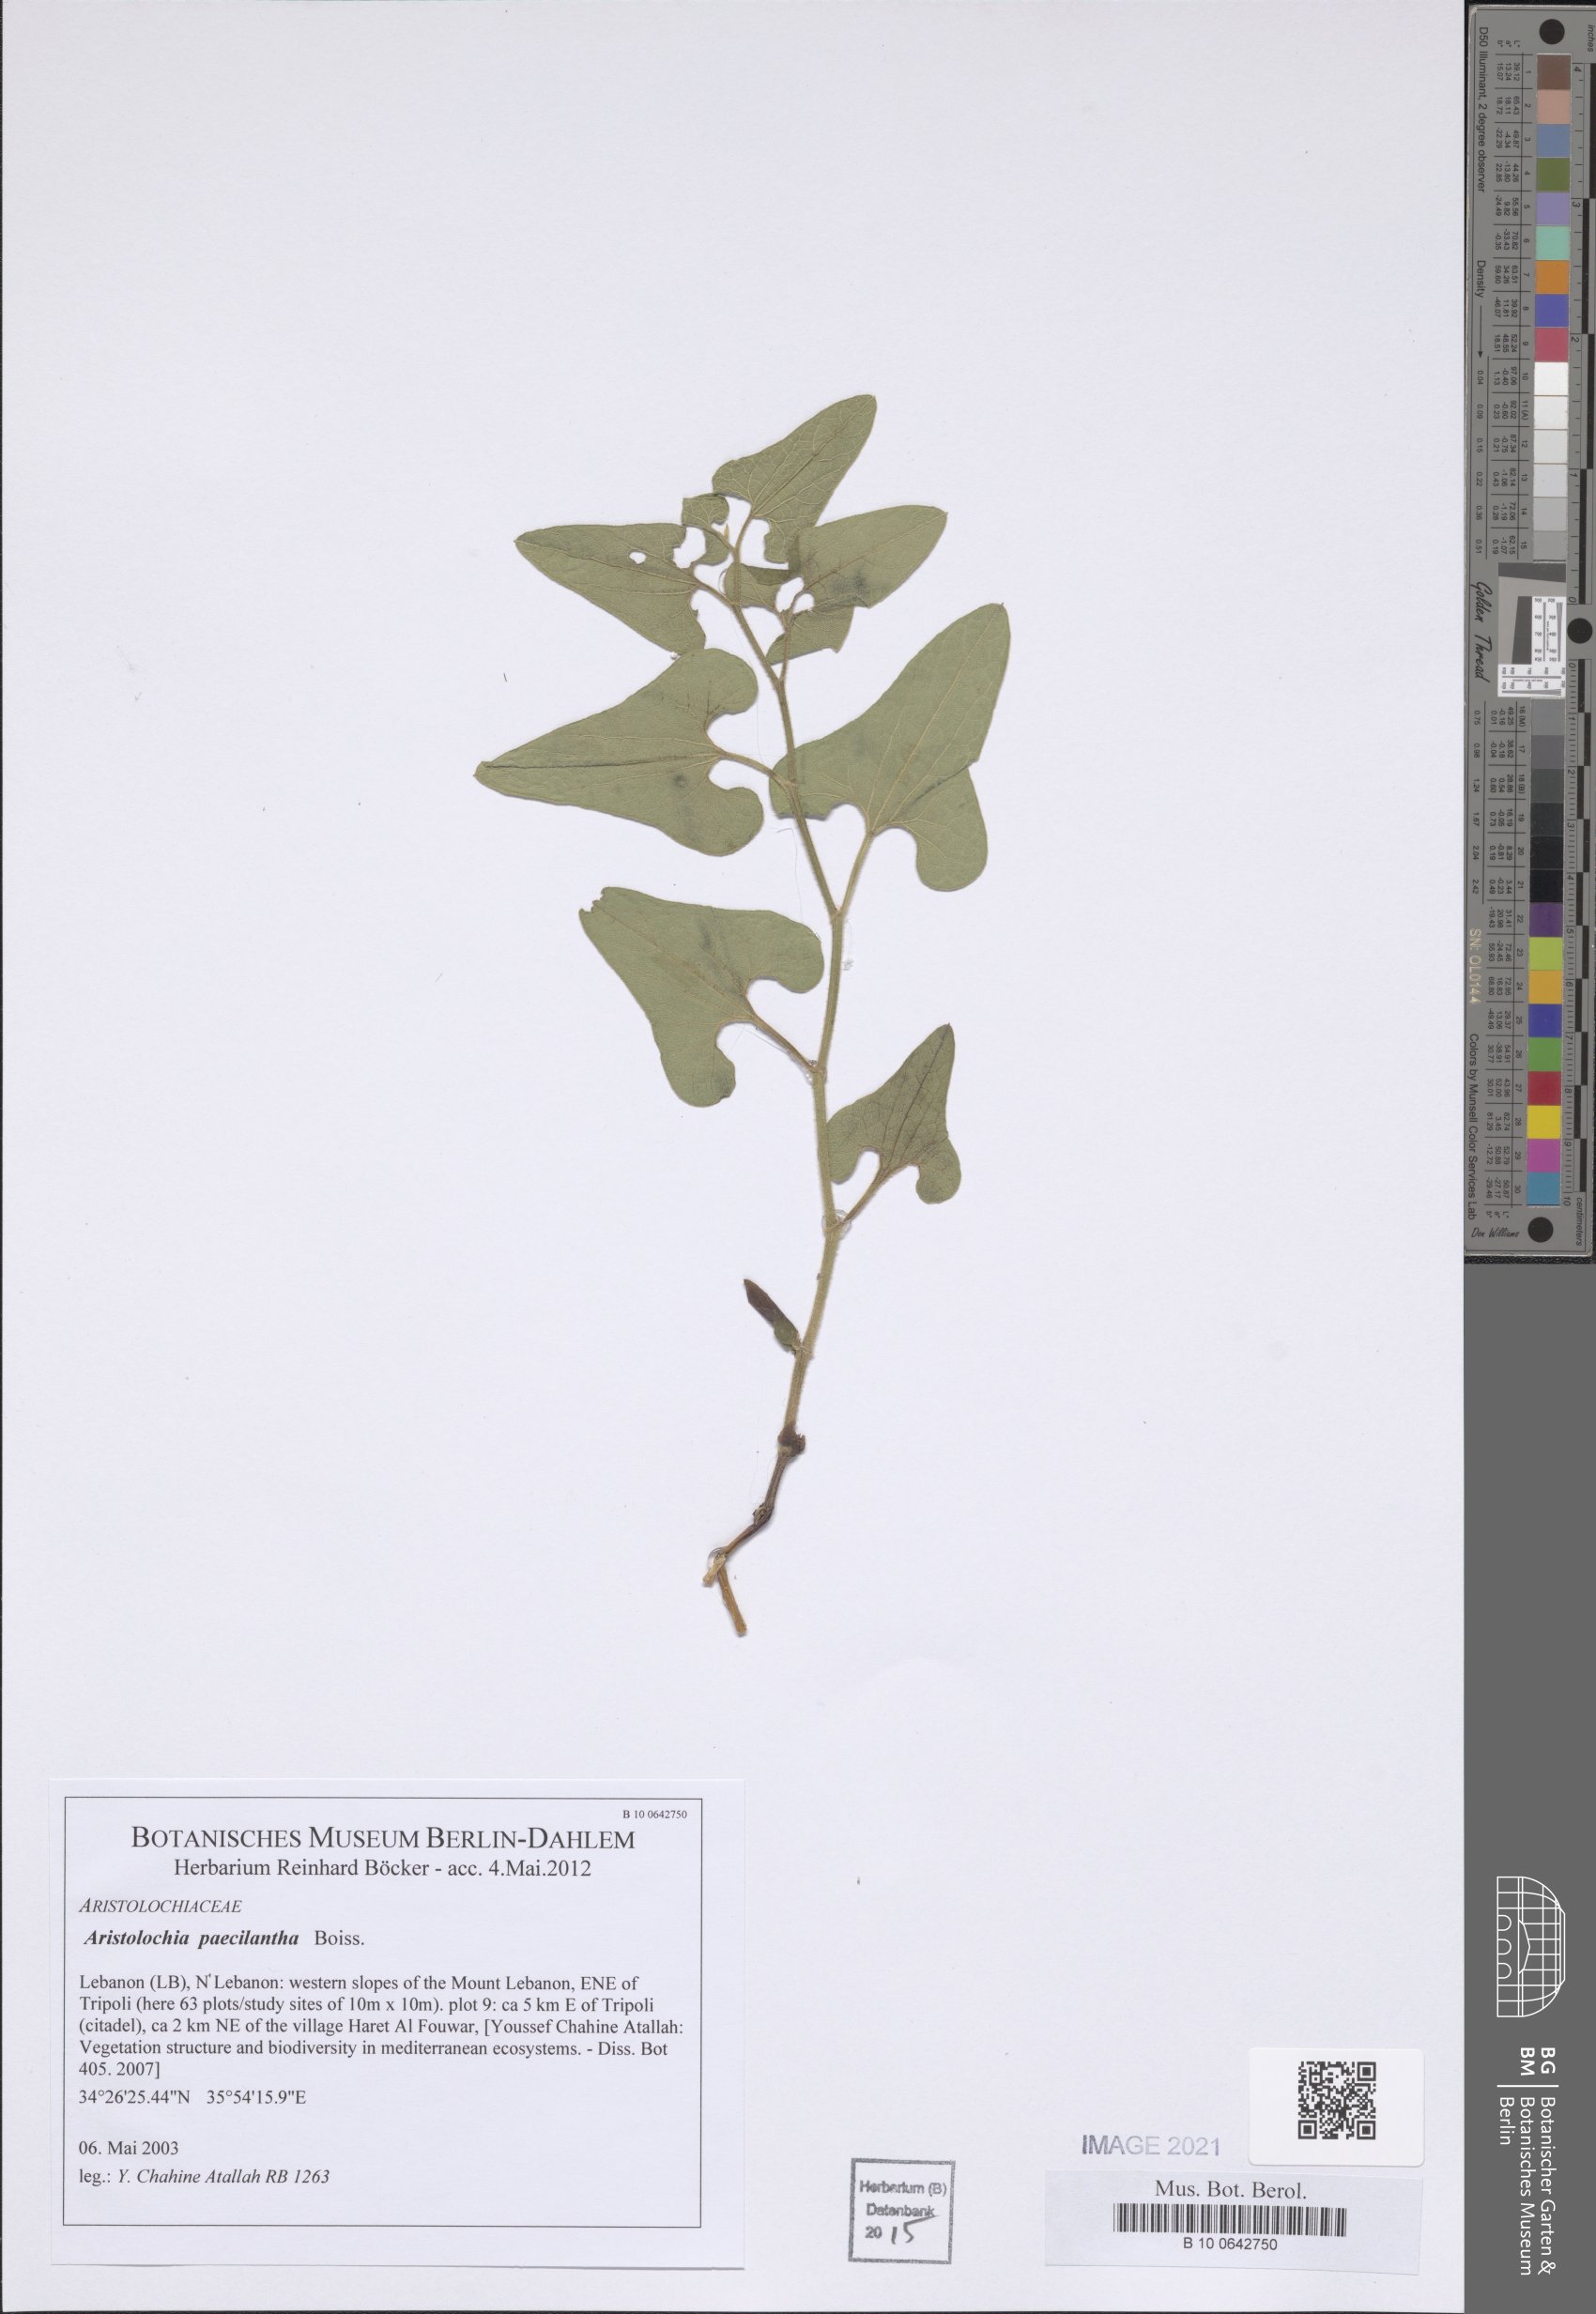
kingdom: Plantae
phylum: Tracheophyta
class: Magnoliopsida
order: Piperales
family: Aristolochiaceae
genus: Aristolochia
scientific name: Aristolochia paecilantha
